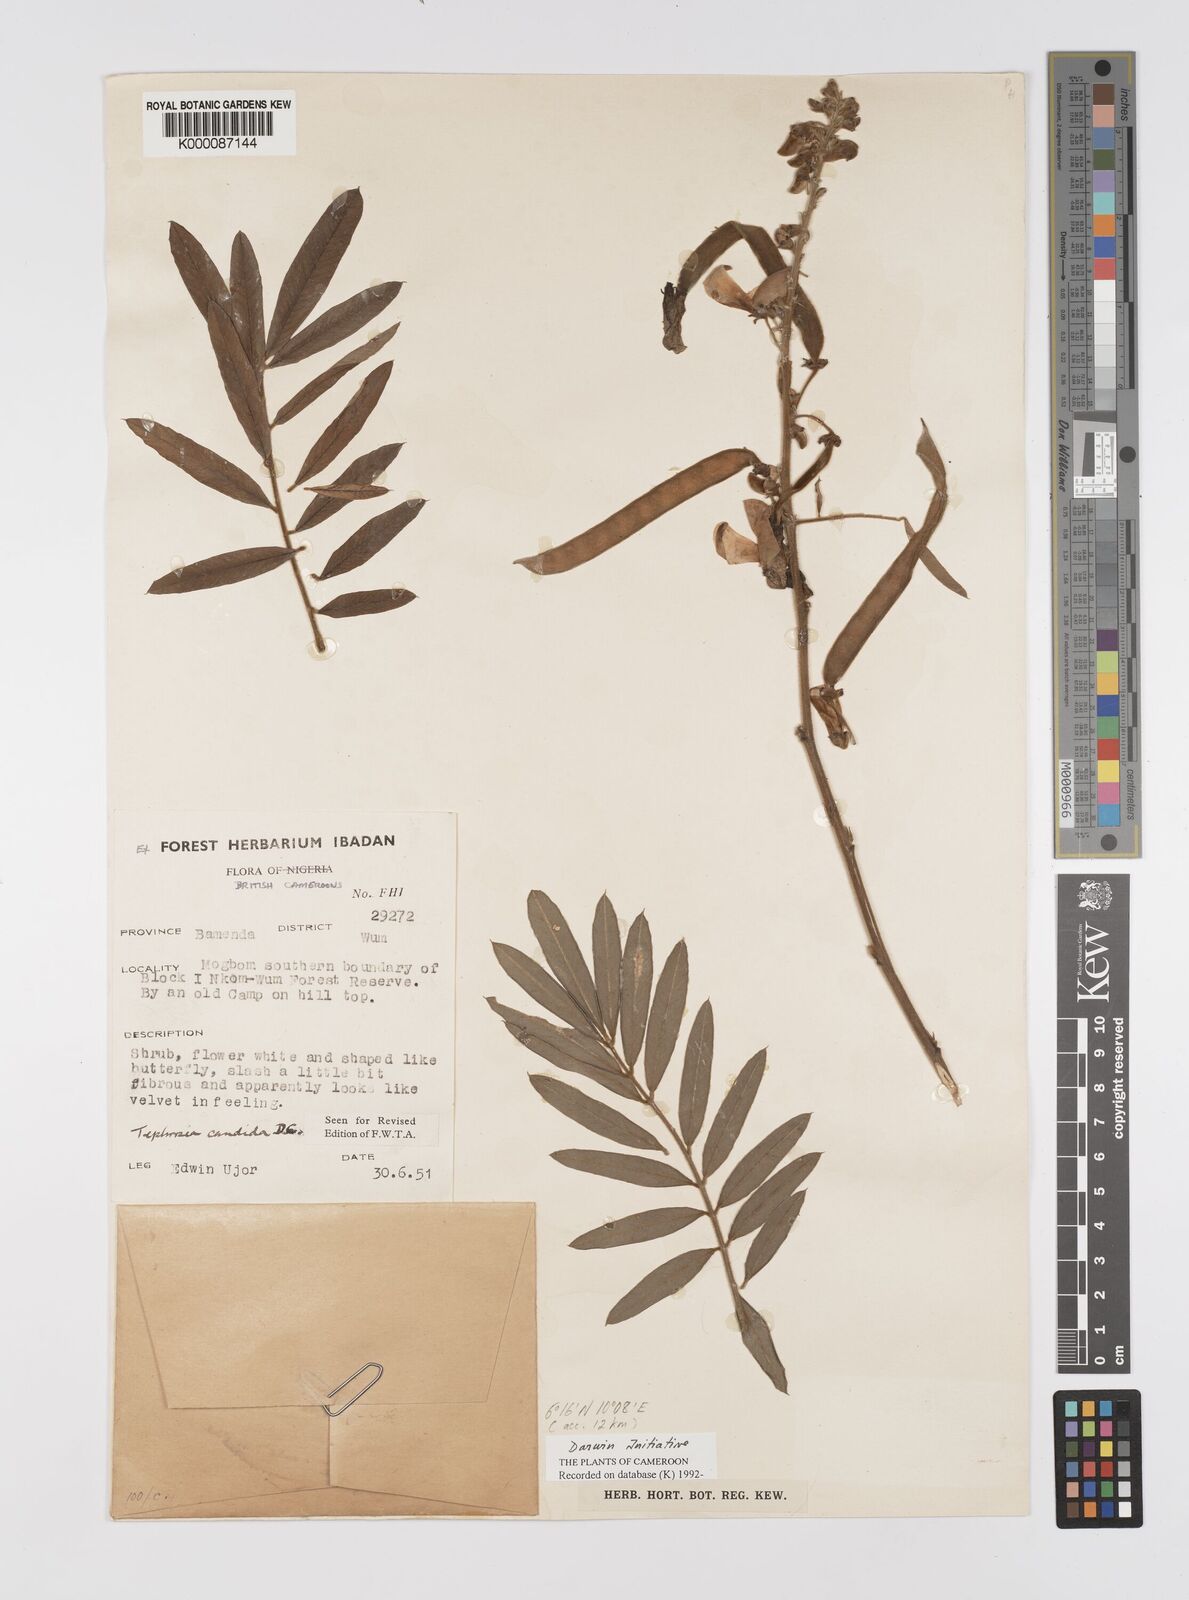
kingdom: Plantae
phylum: Tracheophyta
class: Magnoliopsida
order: Fabales
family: Fabaceae
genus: Tephrosia
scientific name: Tephrosia candida
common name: White tephrosia
